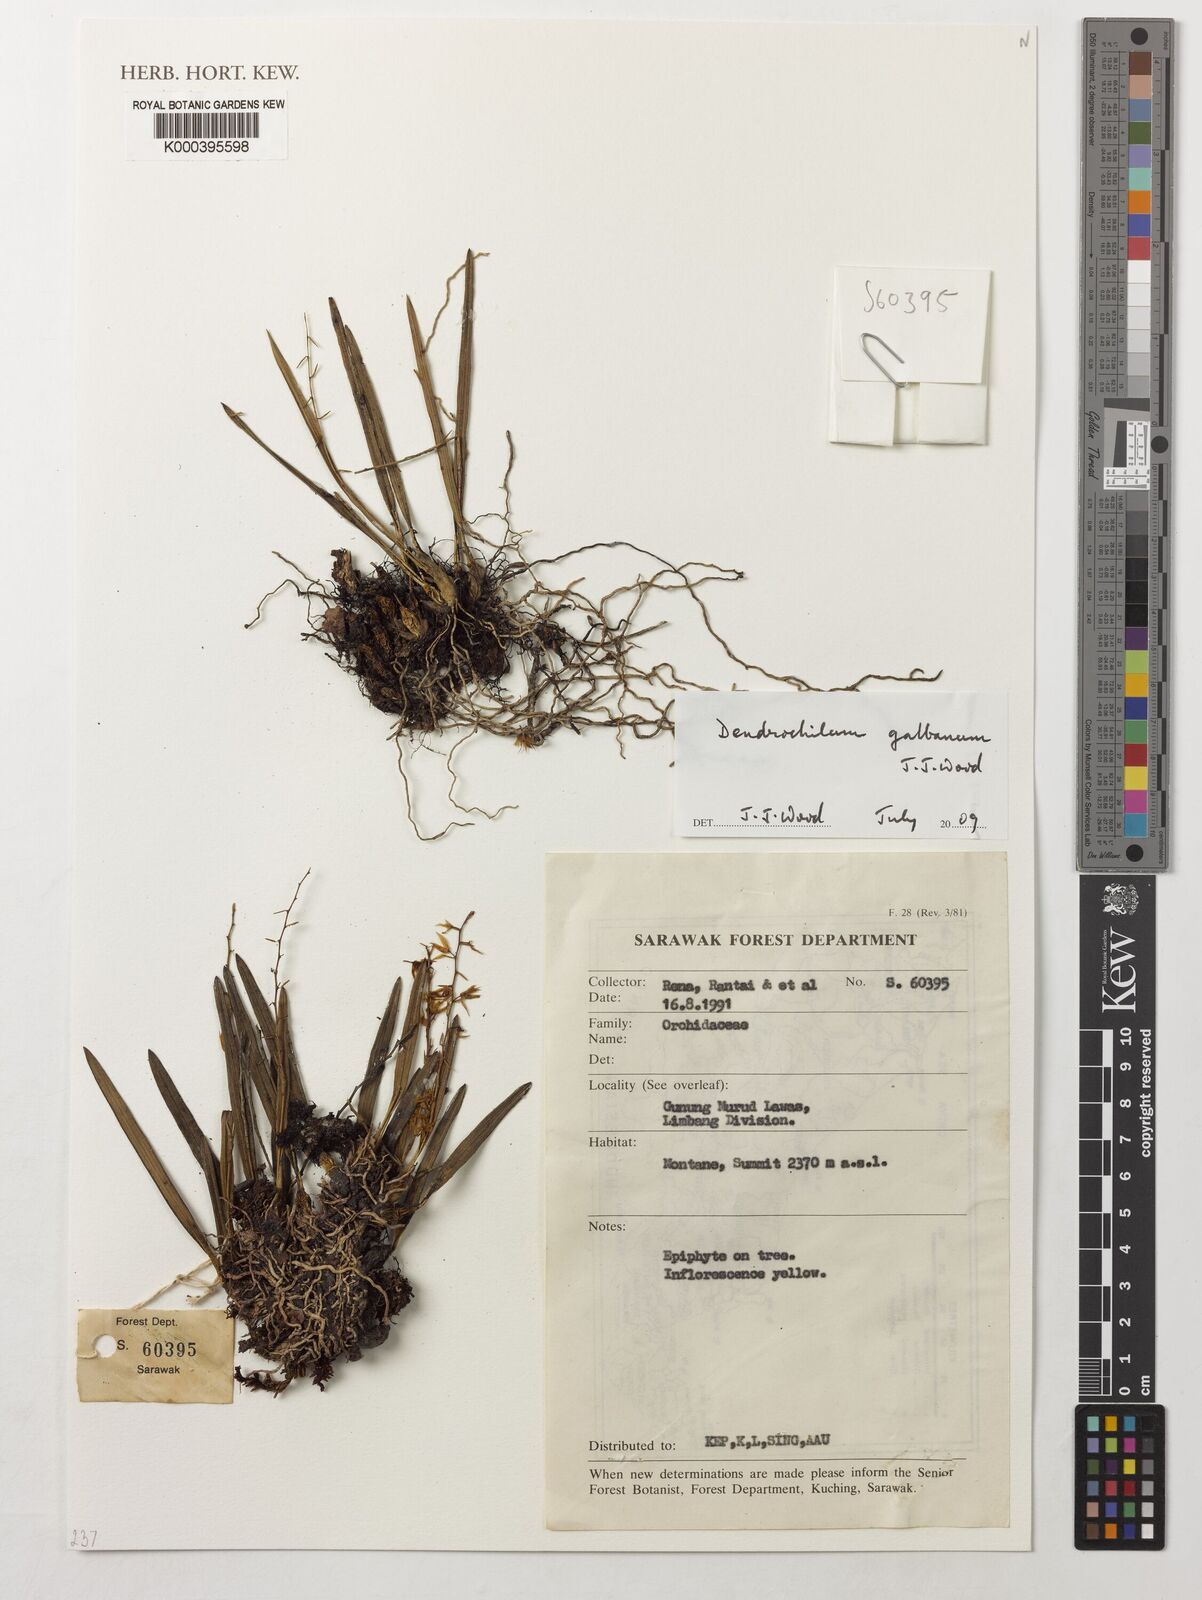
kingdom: Plantae
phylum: Tracheophyta
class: Liliopsida
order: Asparagales
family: Orchidaceae
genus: Coelogyne
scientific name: Coelogyne galbana
